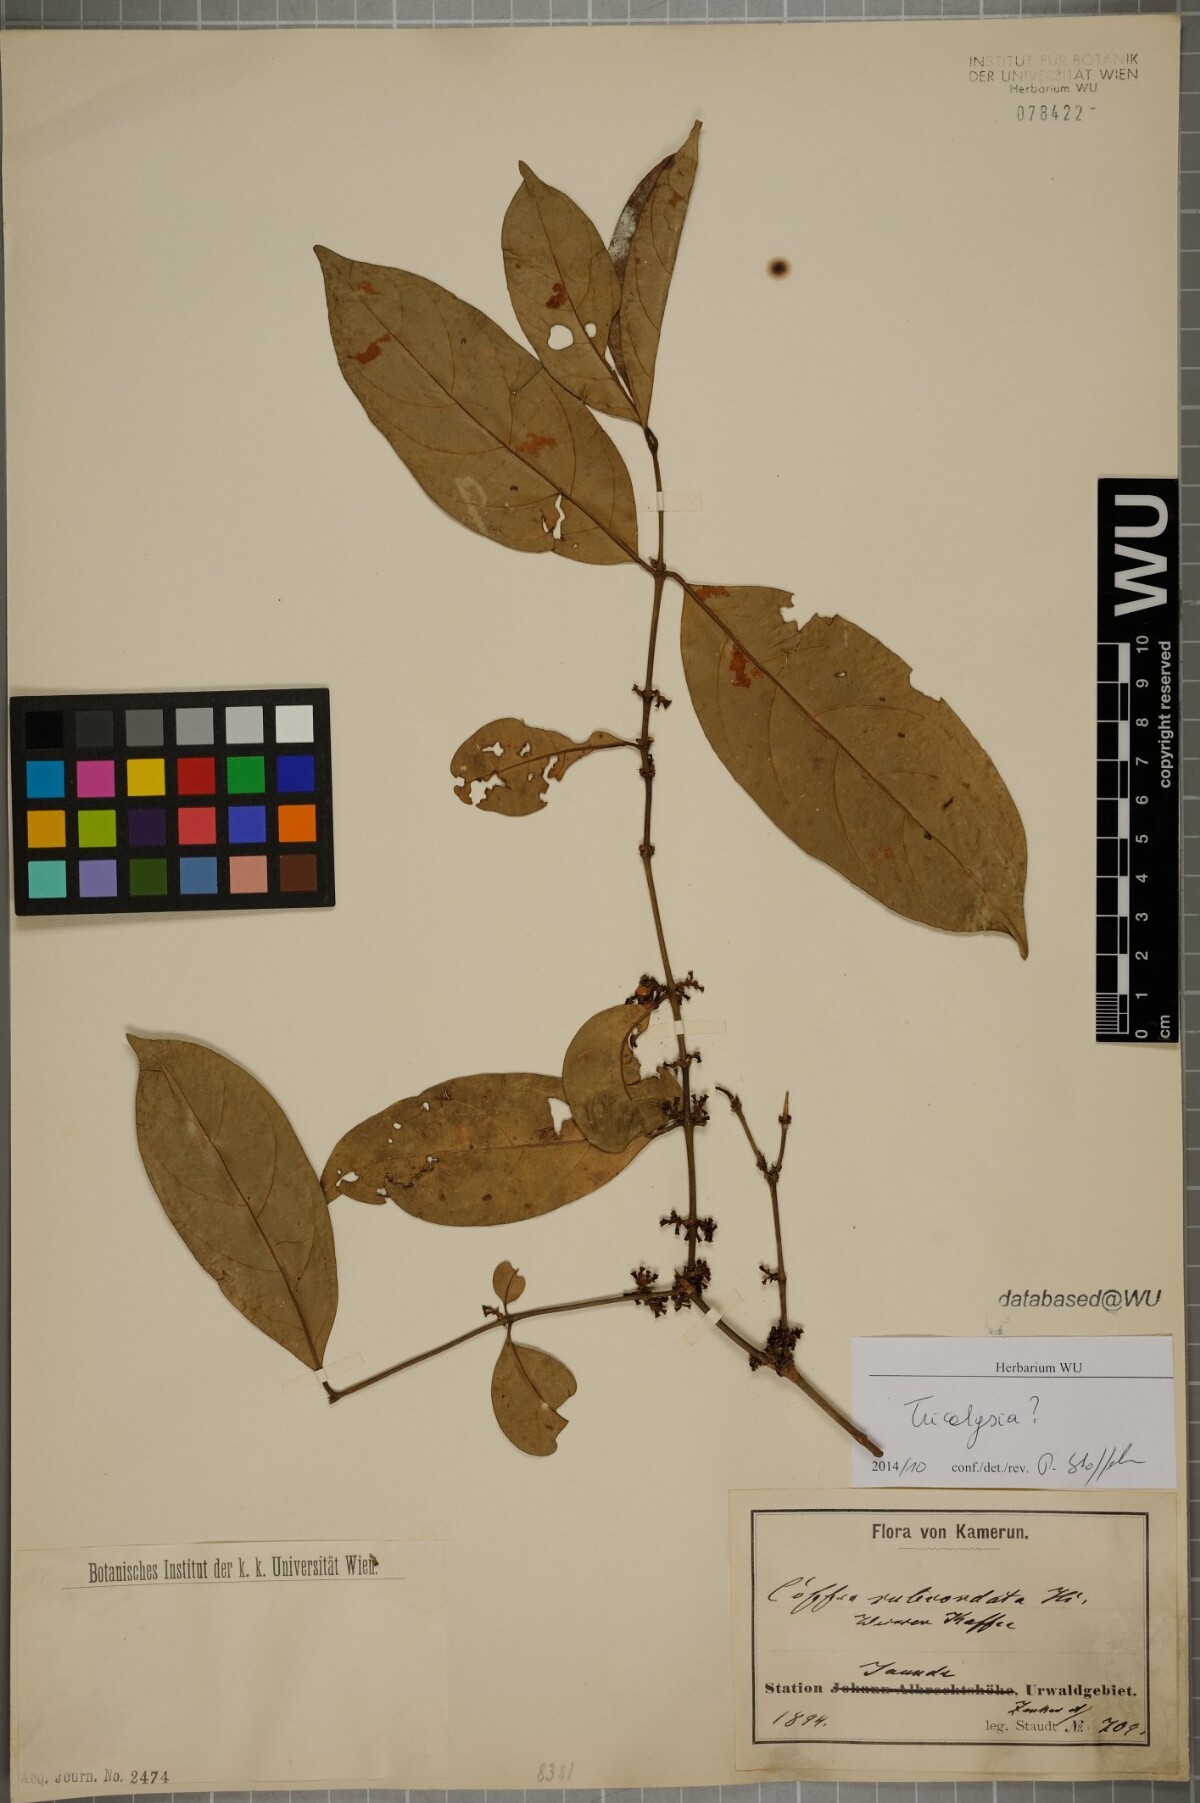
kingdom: Plantae
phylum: Tracheophyta
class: Magnoliopsida
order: Gentianales
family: Rubiaceae
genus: Tricalysia
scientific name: Tricalysia
